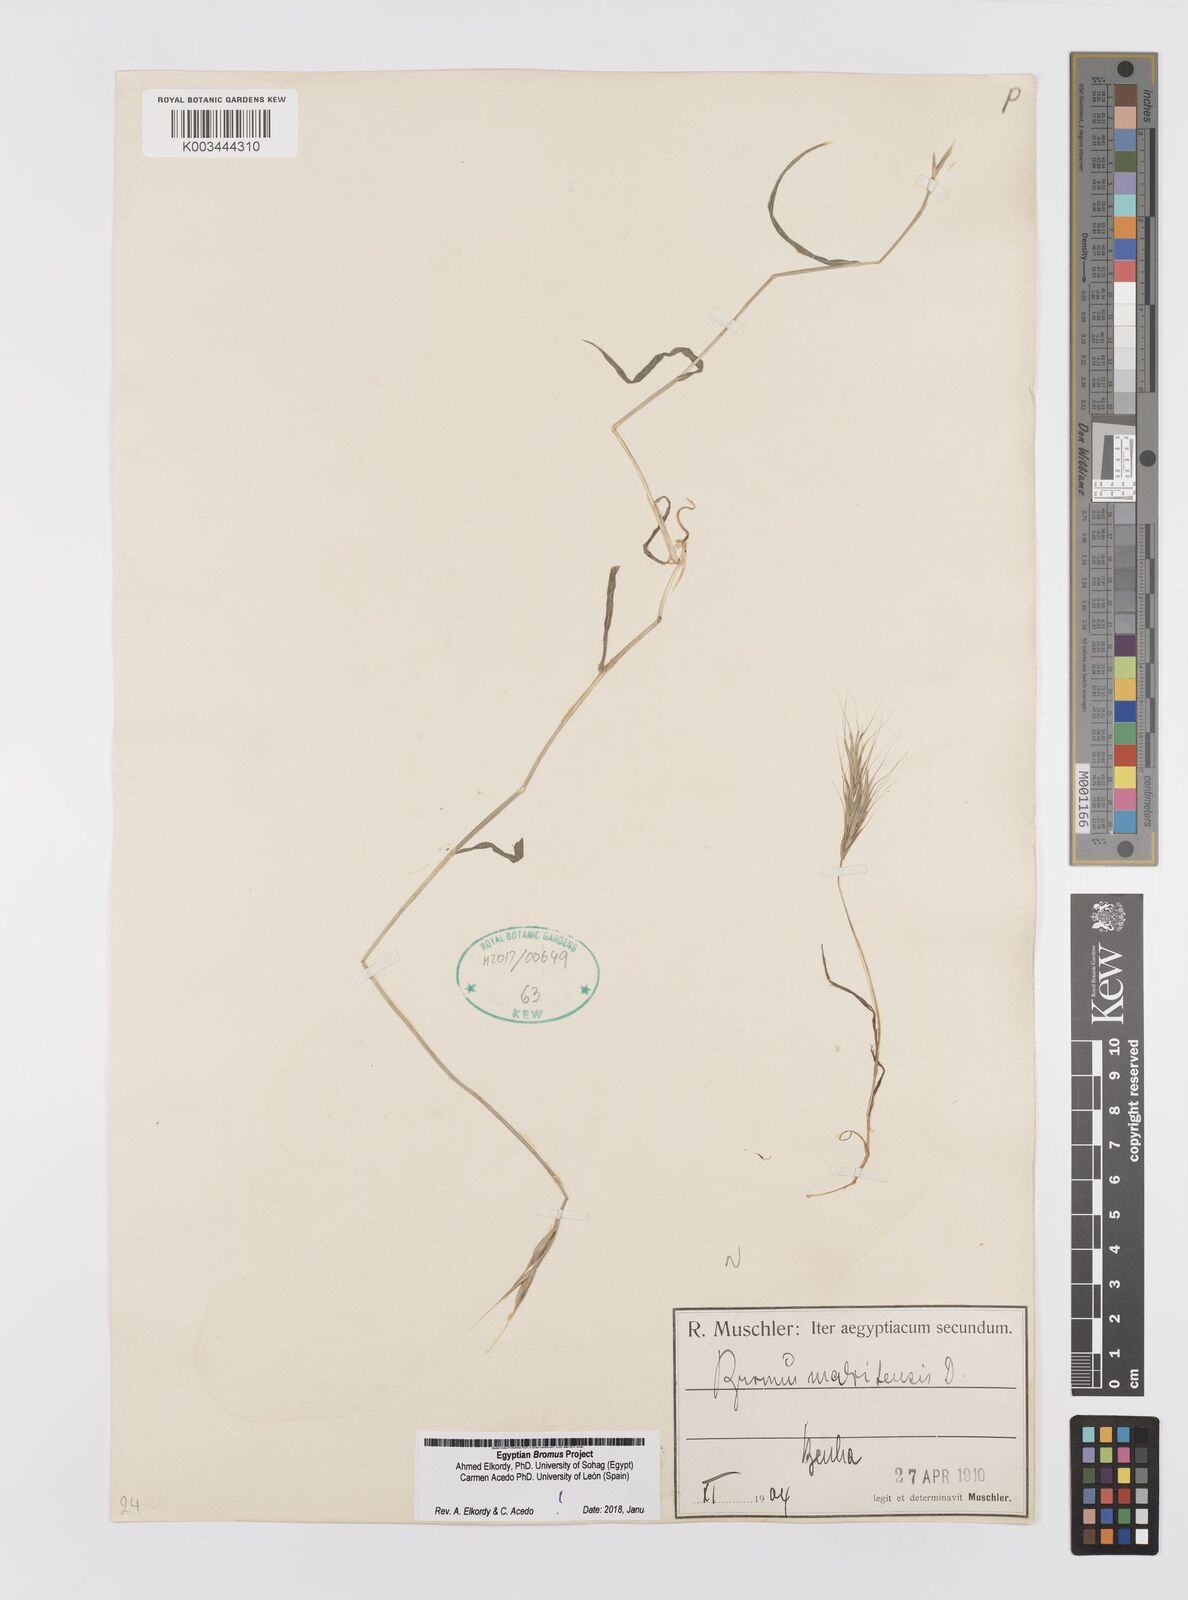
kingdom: Plantae
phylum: Tracheophyta
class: Liliopsida
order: Poales
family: Poaceae
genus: Bromus
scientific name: Bromus madritensis
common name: Compact brome
